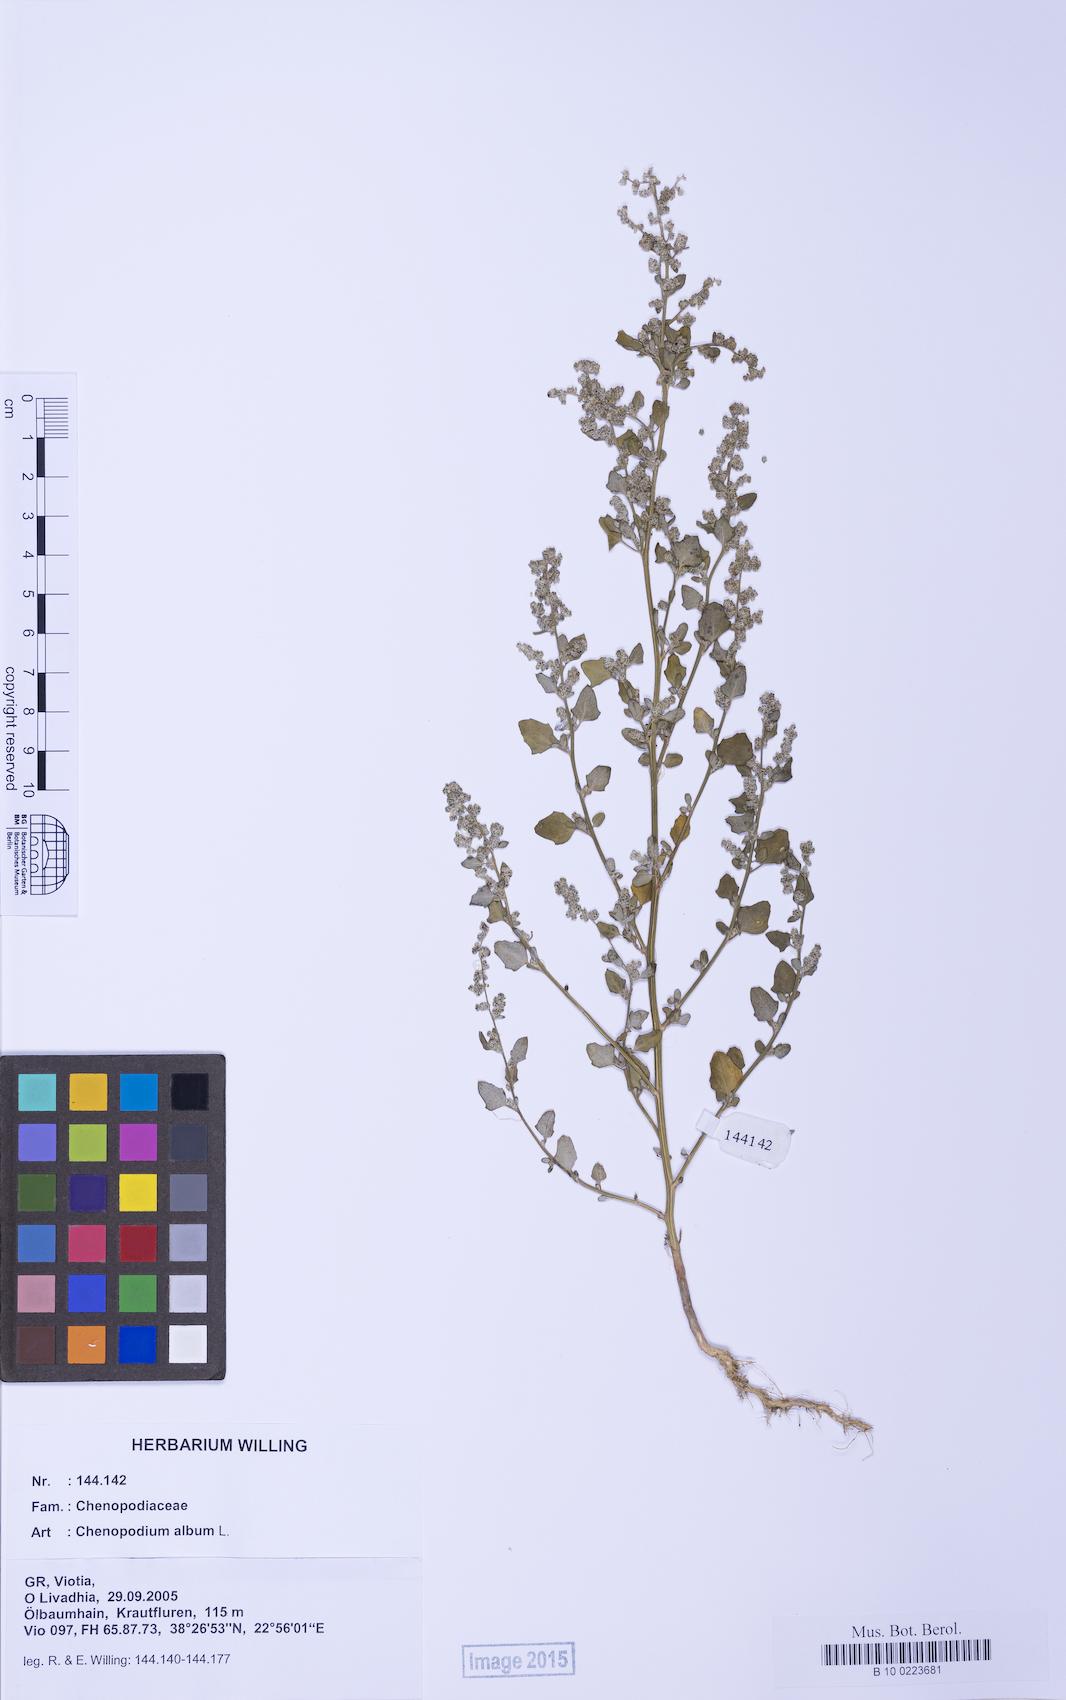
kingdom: Plantae
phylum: Tracheophyta
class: Magnoliopsida
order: Caryophyllales
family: Amaranthaceae
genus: Chenopodium
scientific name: Chenopodium opulifolium
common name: Grey goosefoot
